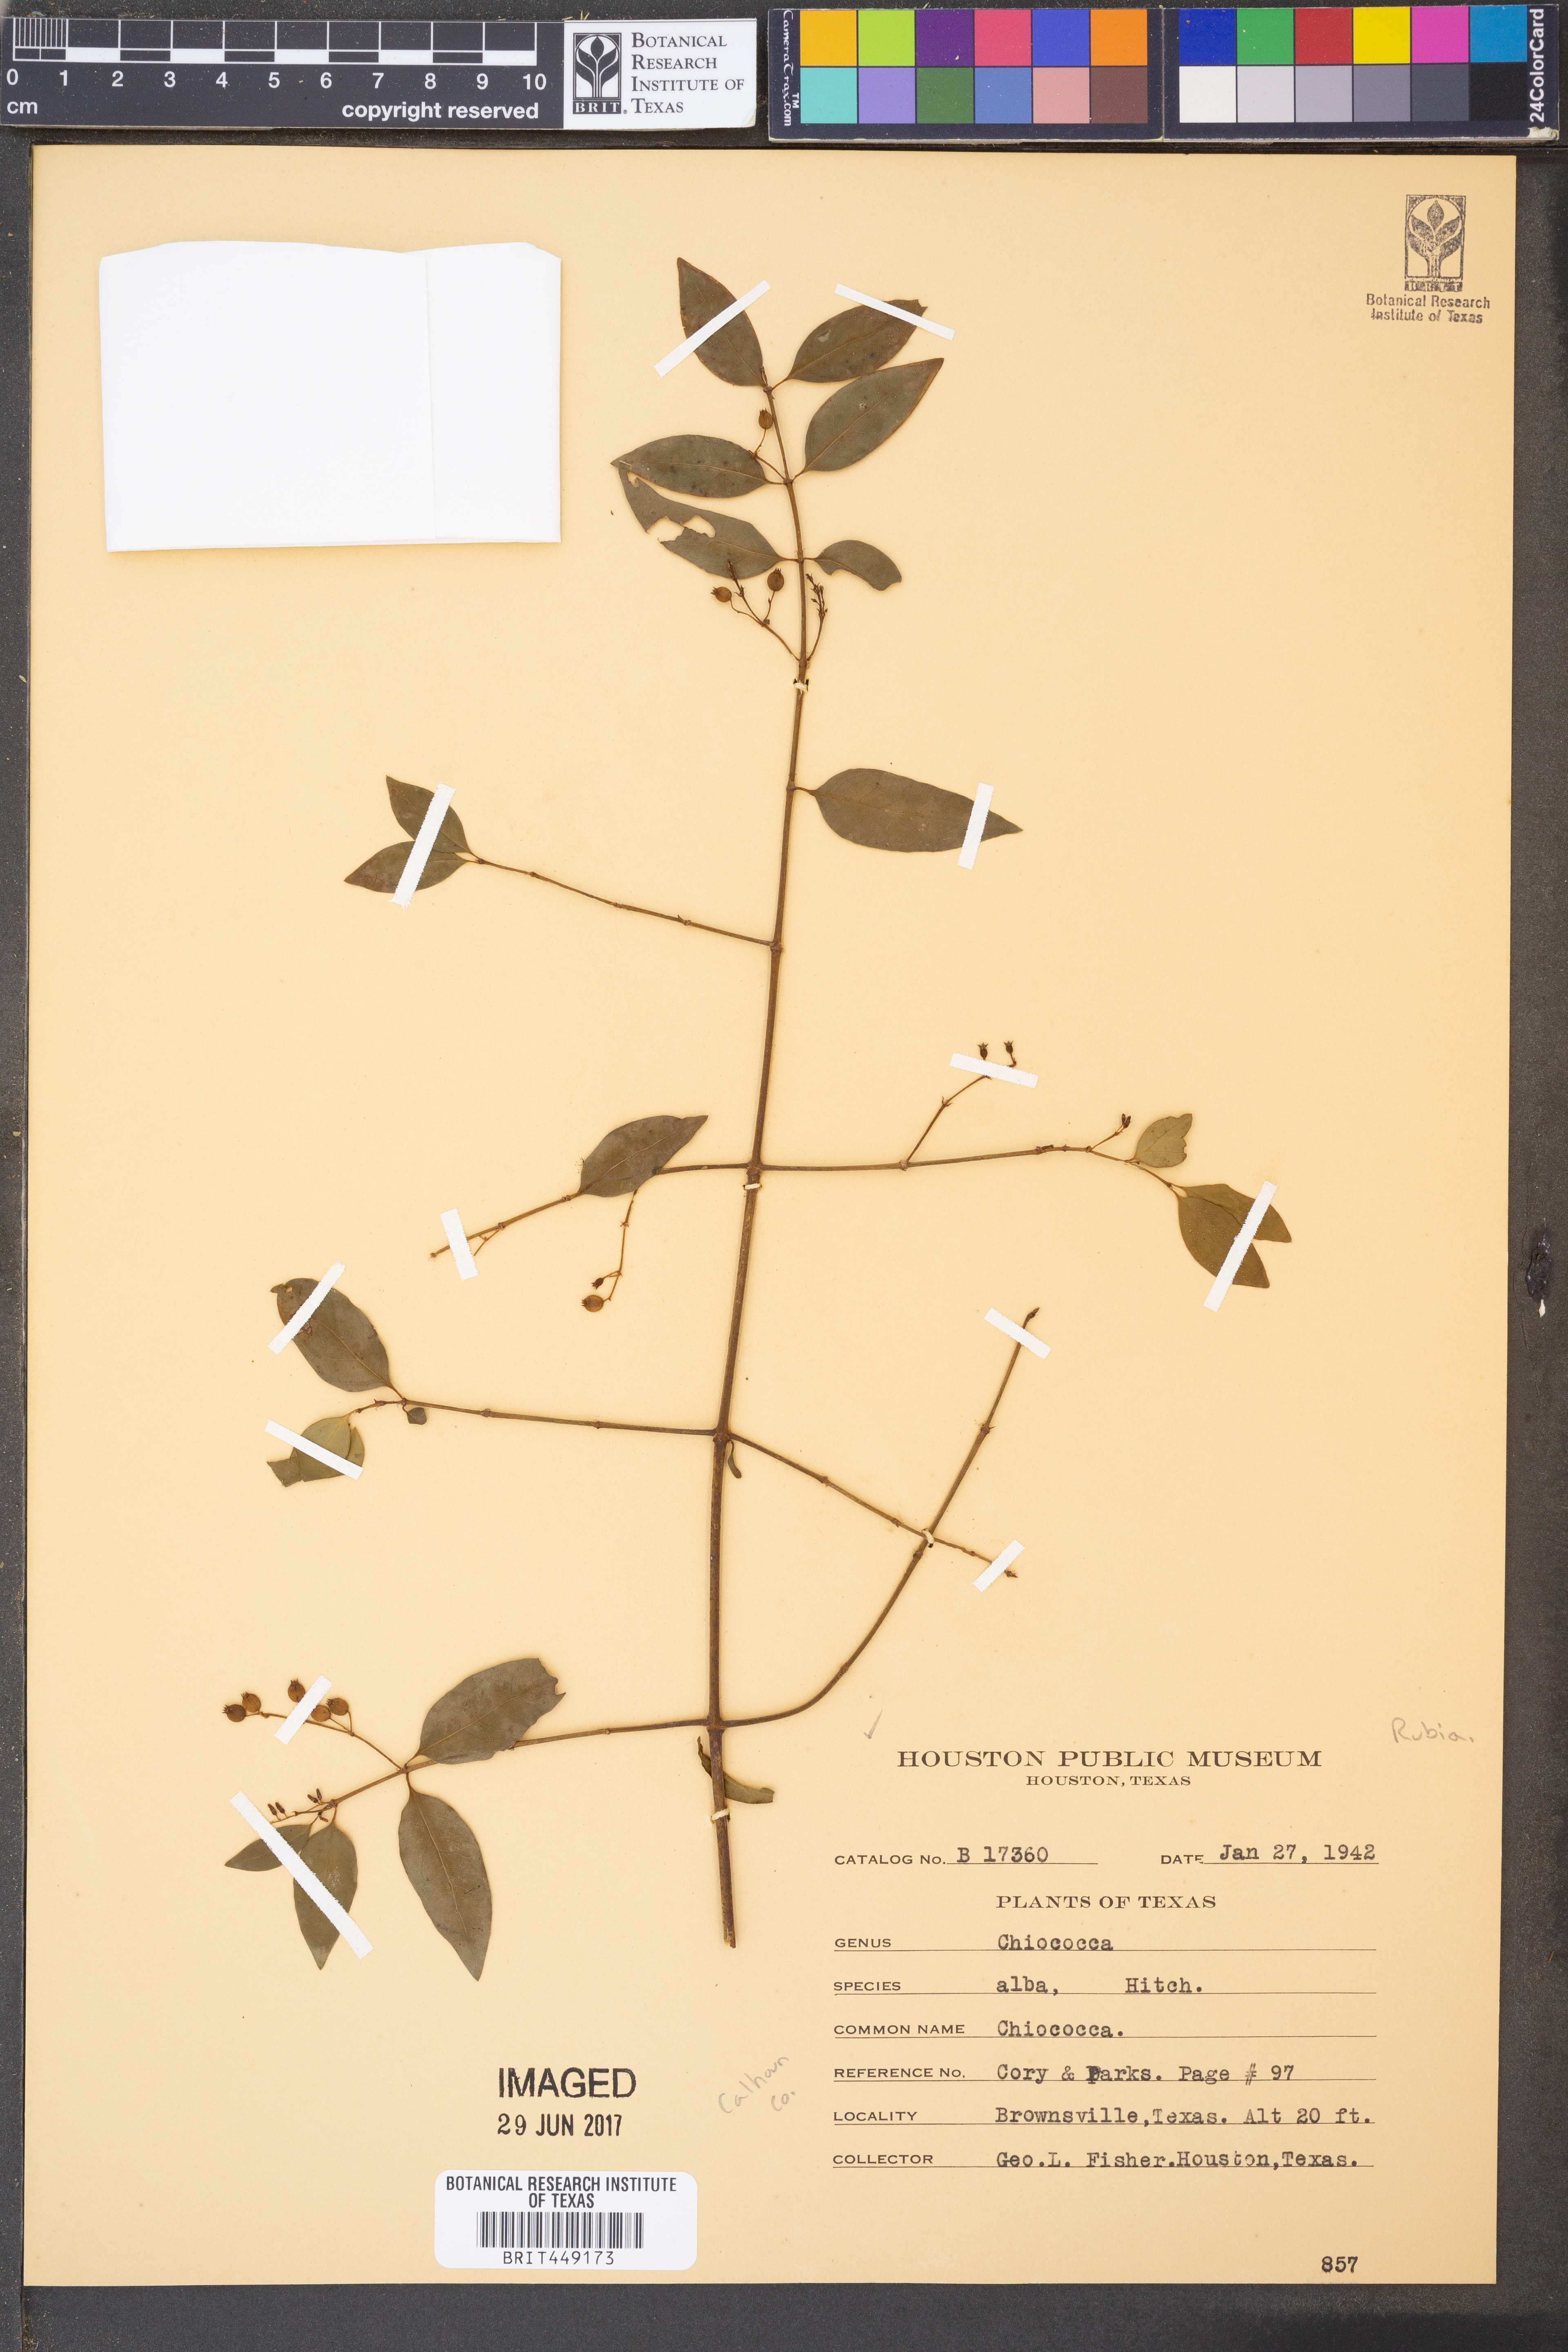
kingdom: Plantae
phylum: Tracheophyta
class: Magnoliopsida
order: Gentianales
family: Rubiaceae
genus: Chiococca
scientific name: Chiococca alba
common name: Snowberry
